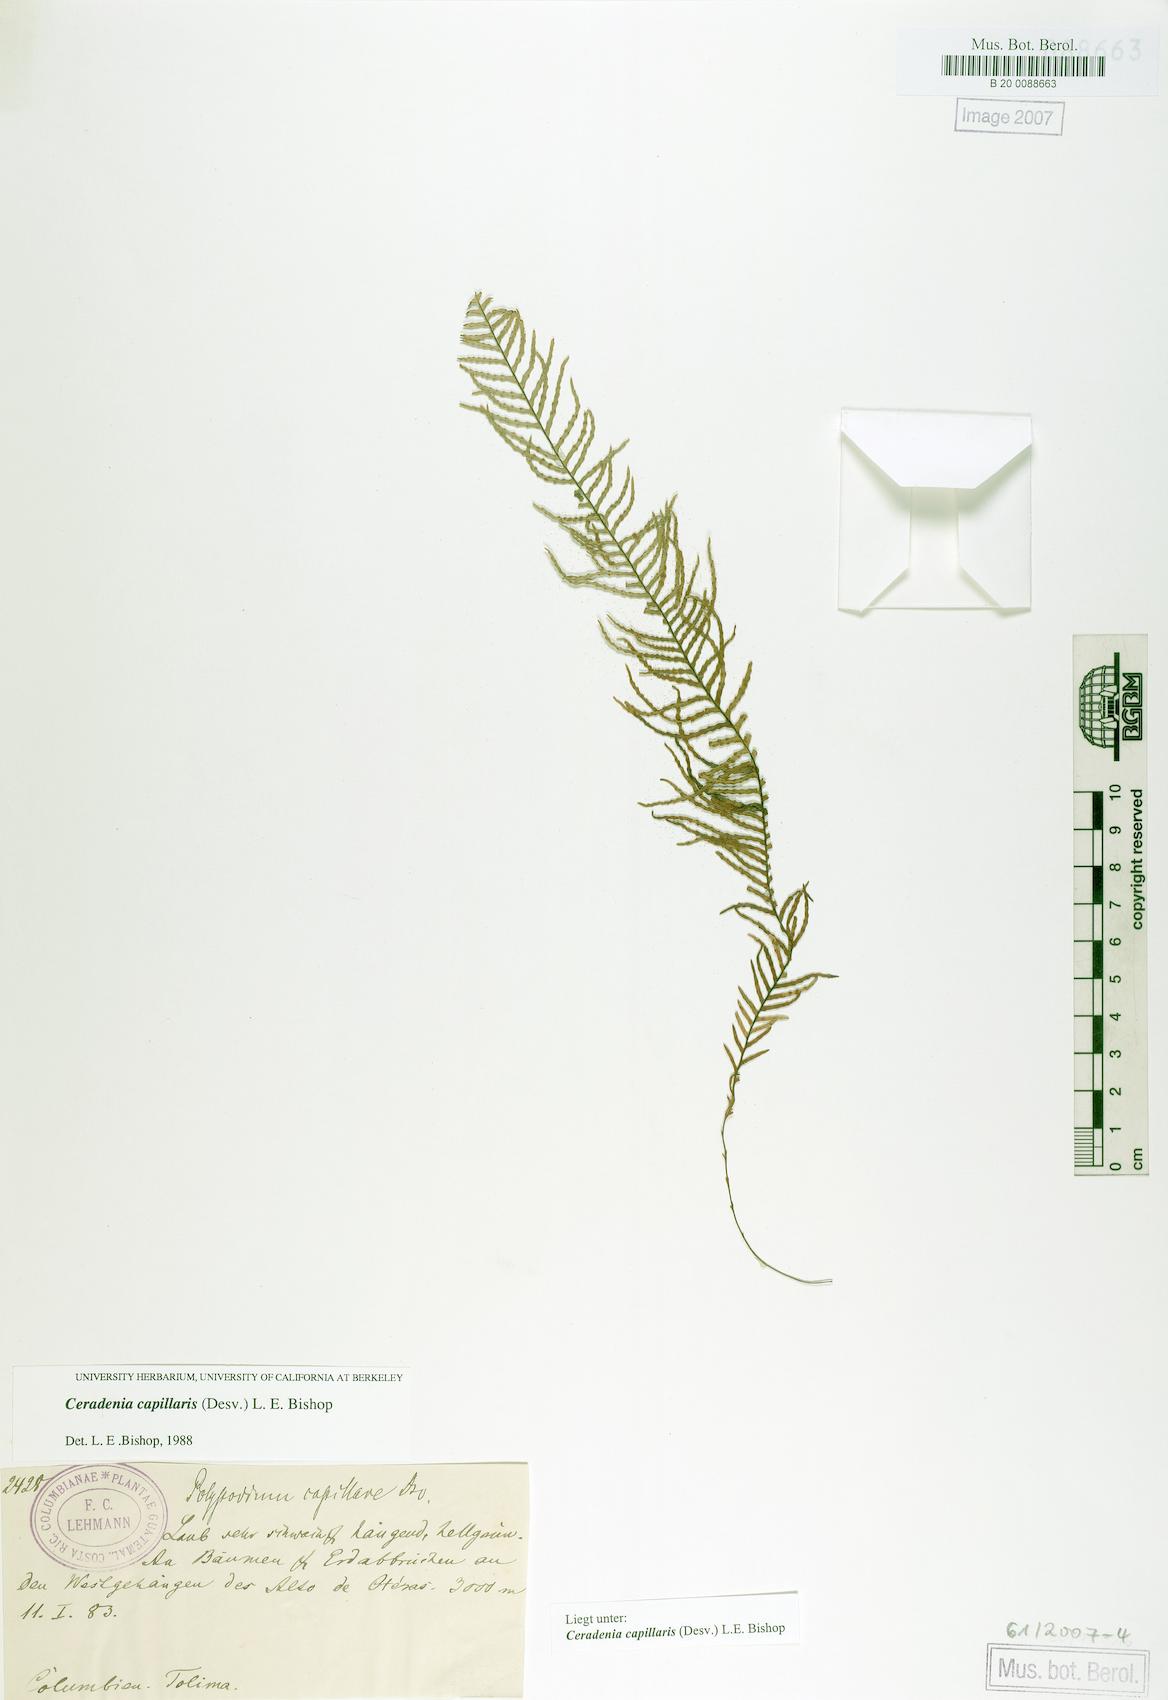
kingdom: Plantae
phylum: Tracheophyta
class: Polypodiopsida
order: Polypodiales
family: Polypodiaceae
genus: Ceradenia
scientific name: Ceradenia capillaris
